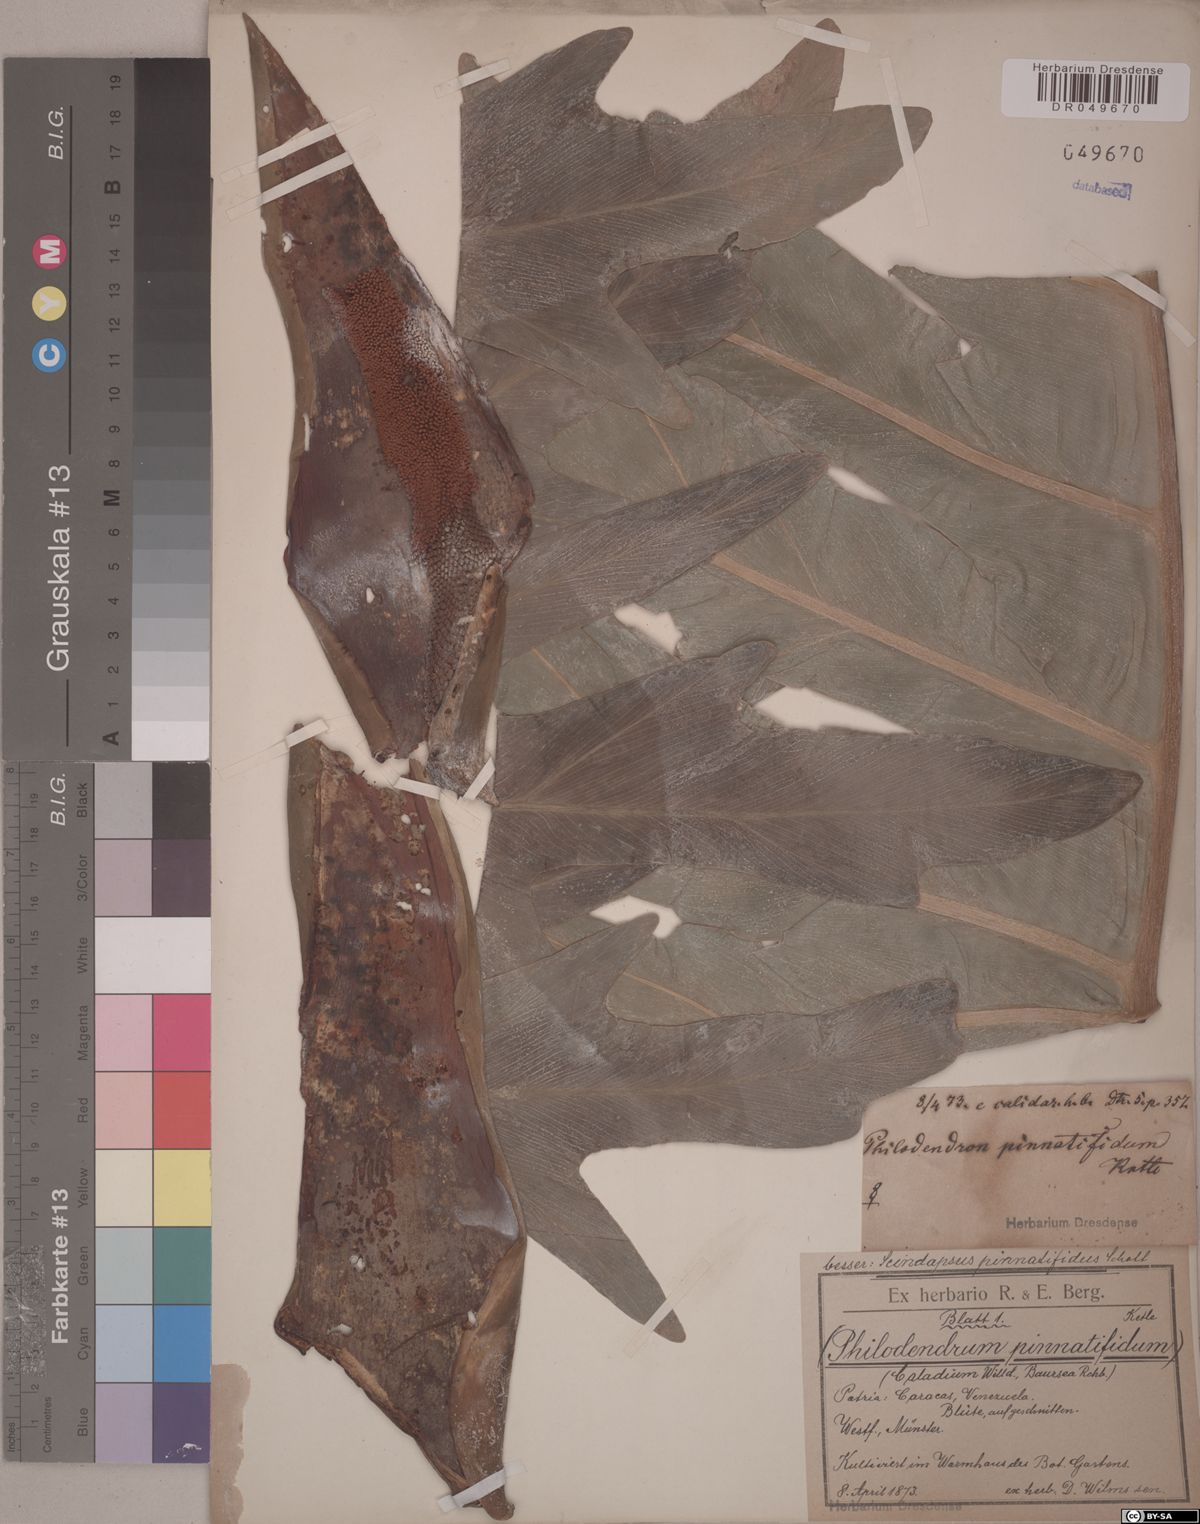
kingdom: Plantae
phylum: Tracheophyta
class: Liliopsida
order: Alismatales
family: Araceae
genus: Philodendron
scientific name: Philodendron pinnatifidum
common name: Comb-leaf philodendron
